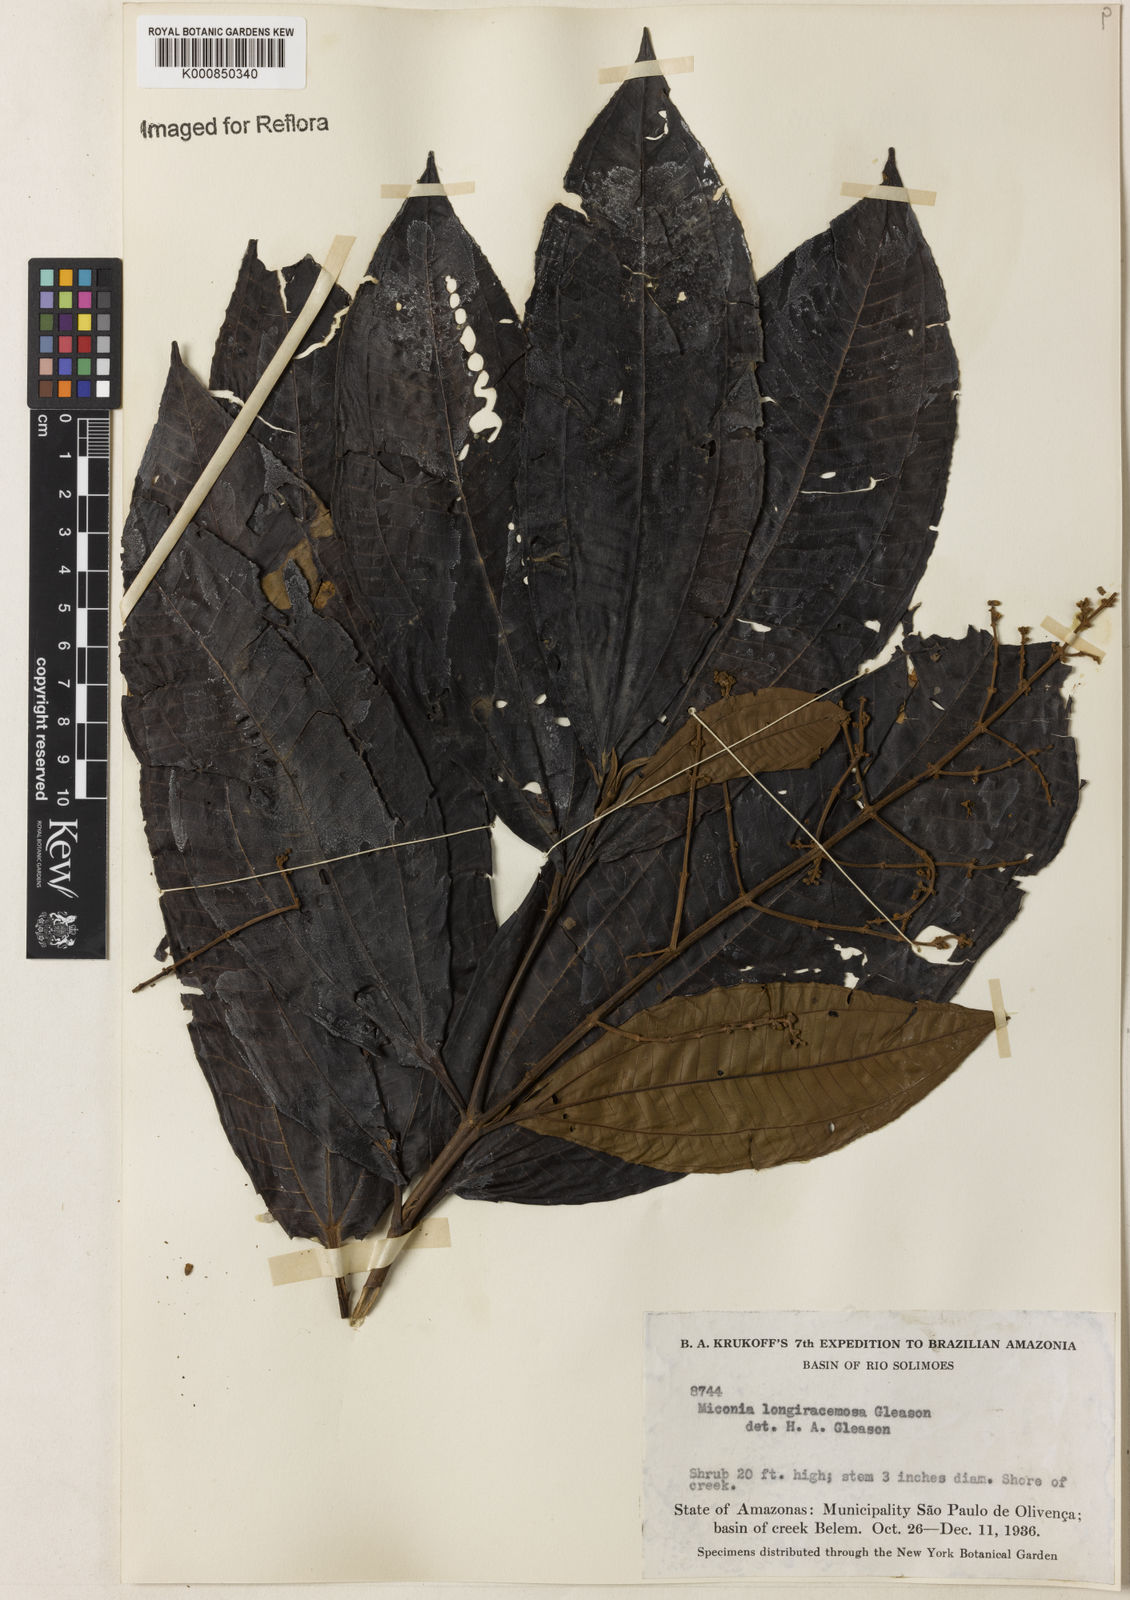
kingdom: Plantae
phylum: Tracheophyta
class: Magnoliopsida
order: Myrtales
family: Melastomataceae
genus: Miconia
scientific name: Miconia longiracemosa
